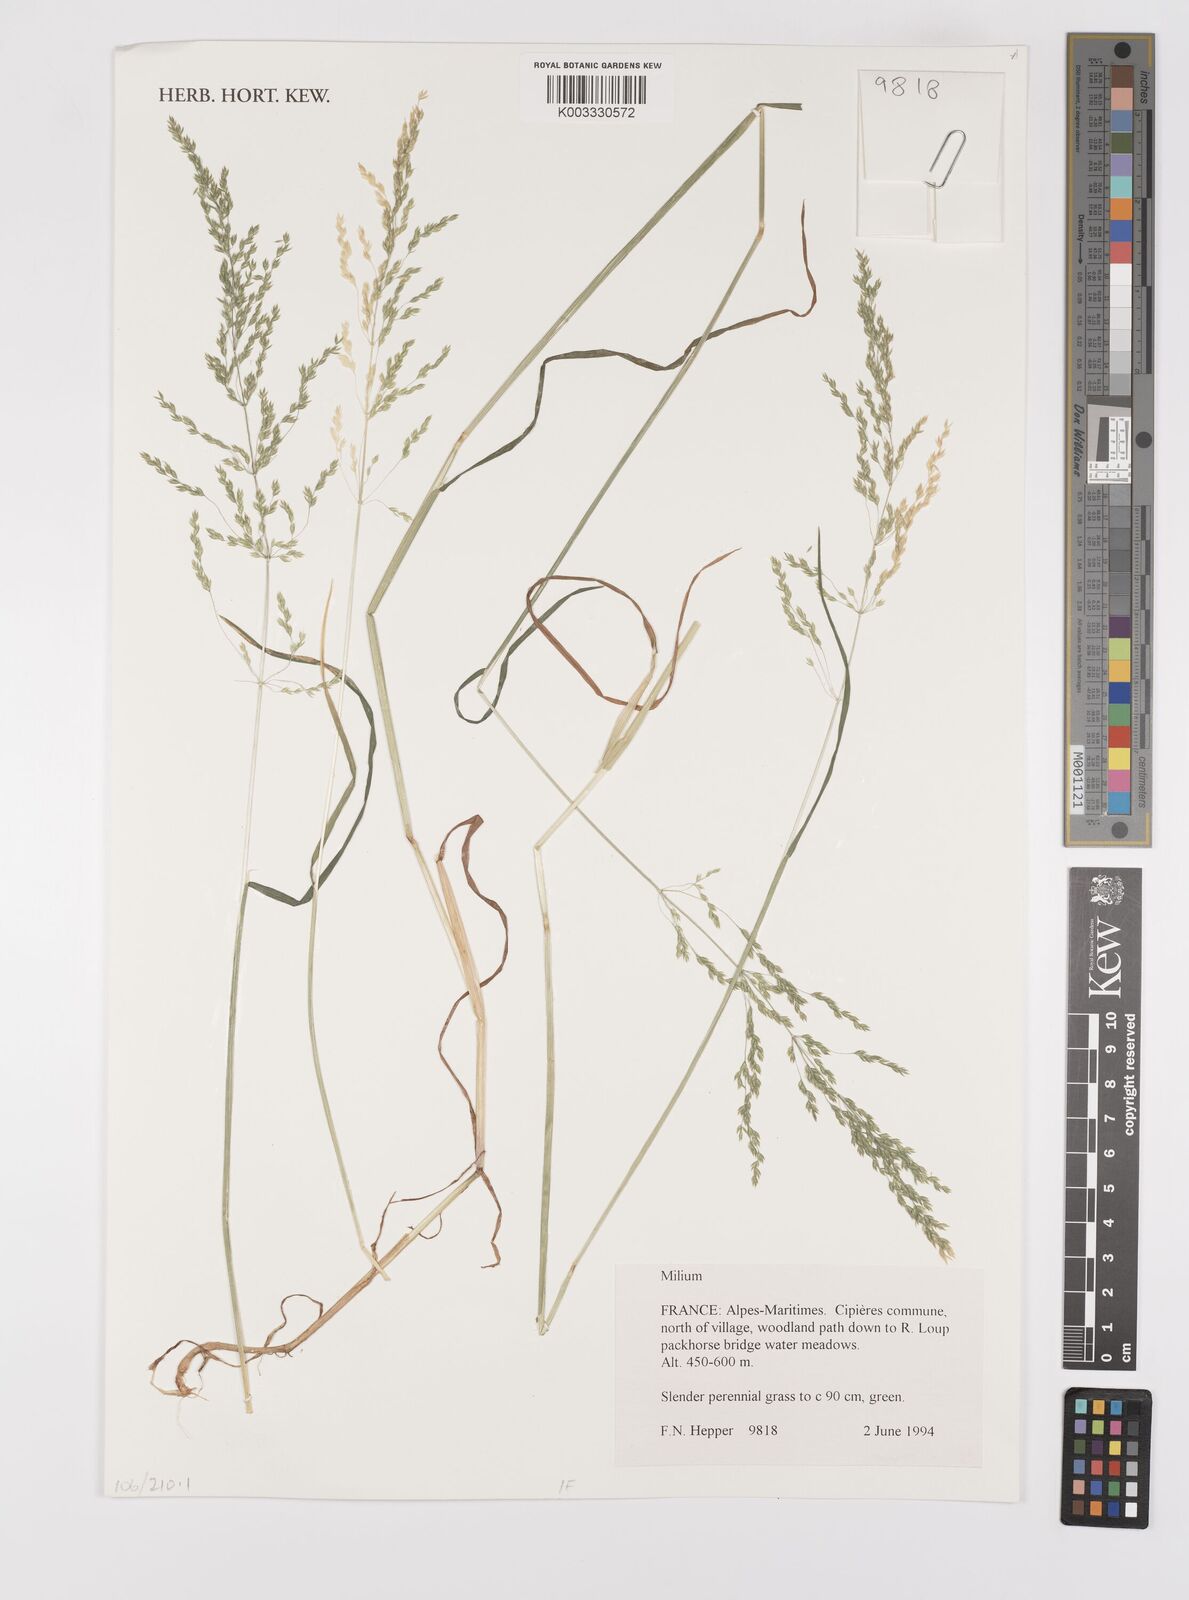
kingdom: Plantae
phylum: Tracheophyta
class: Liliopsida
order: Poales
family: Poaceae
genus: Milium
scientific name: Milium
